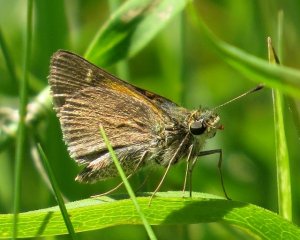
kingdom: Animalia
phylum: Arthropoda
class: Insecta
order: Lepidoptera
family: Hesperiidae
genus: Polites
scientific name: Polites themistocles
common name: Tawny-edged Skipper
